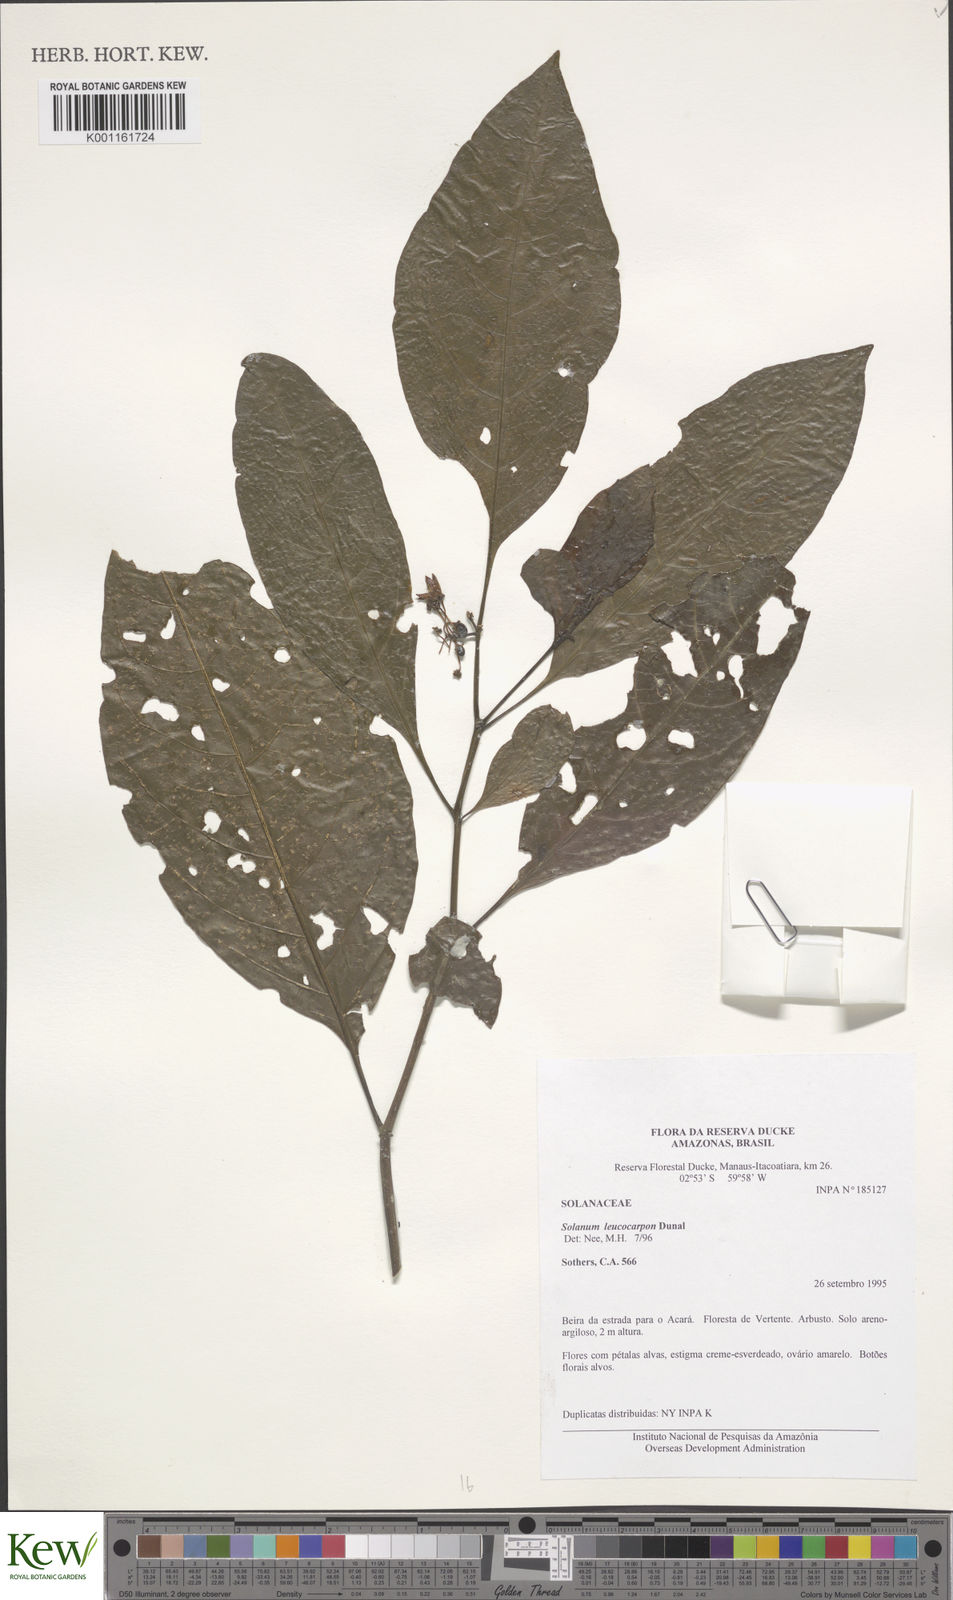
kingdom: Plantae
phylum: Tracheophyta
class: Magnoliopsida
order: Solanales
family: Solanaceae
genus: Solanum
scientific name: Solanum leucocarpon
